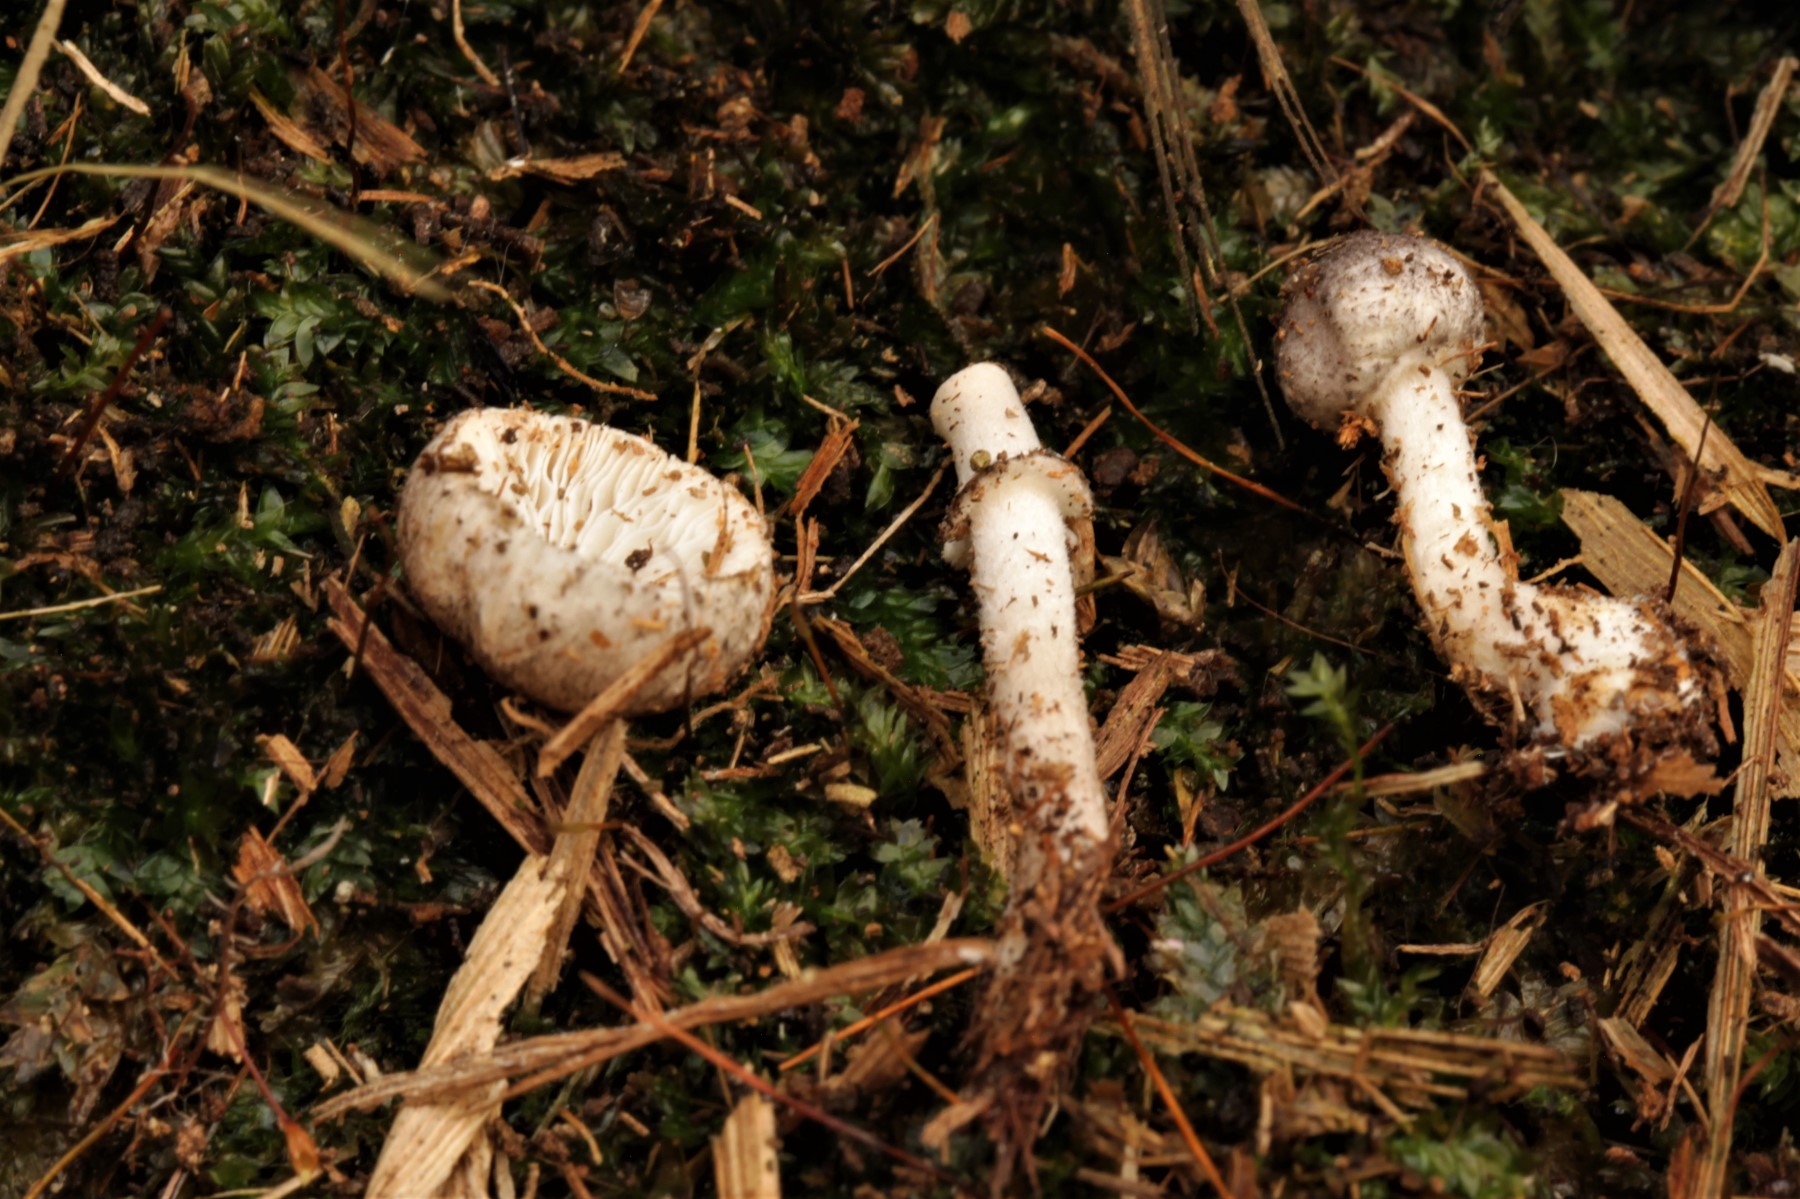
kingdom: Fungi
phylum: Basidiomycota
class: Agaricomycetes
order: Agaricales
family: Agaricaceae
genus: Leucoagaricus
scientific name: Leucoagaricus melanotrichus
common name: gråhåret silkehat
